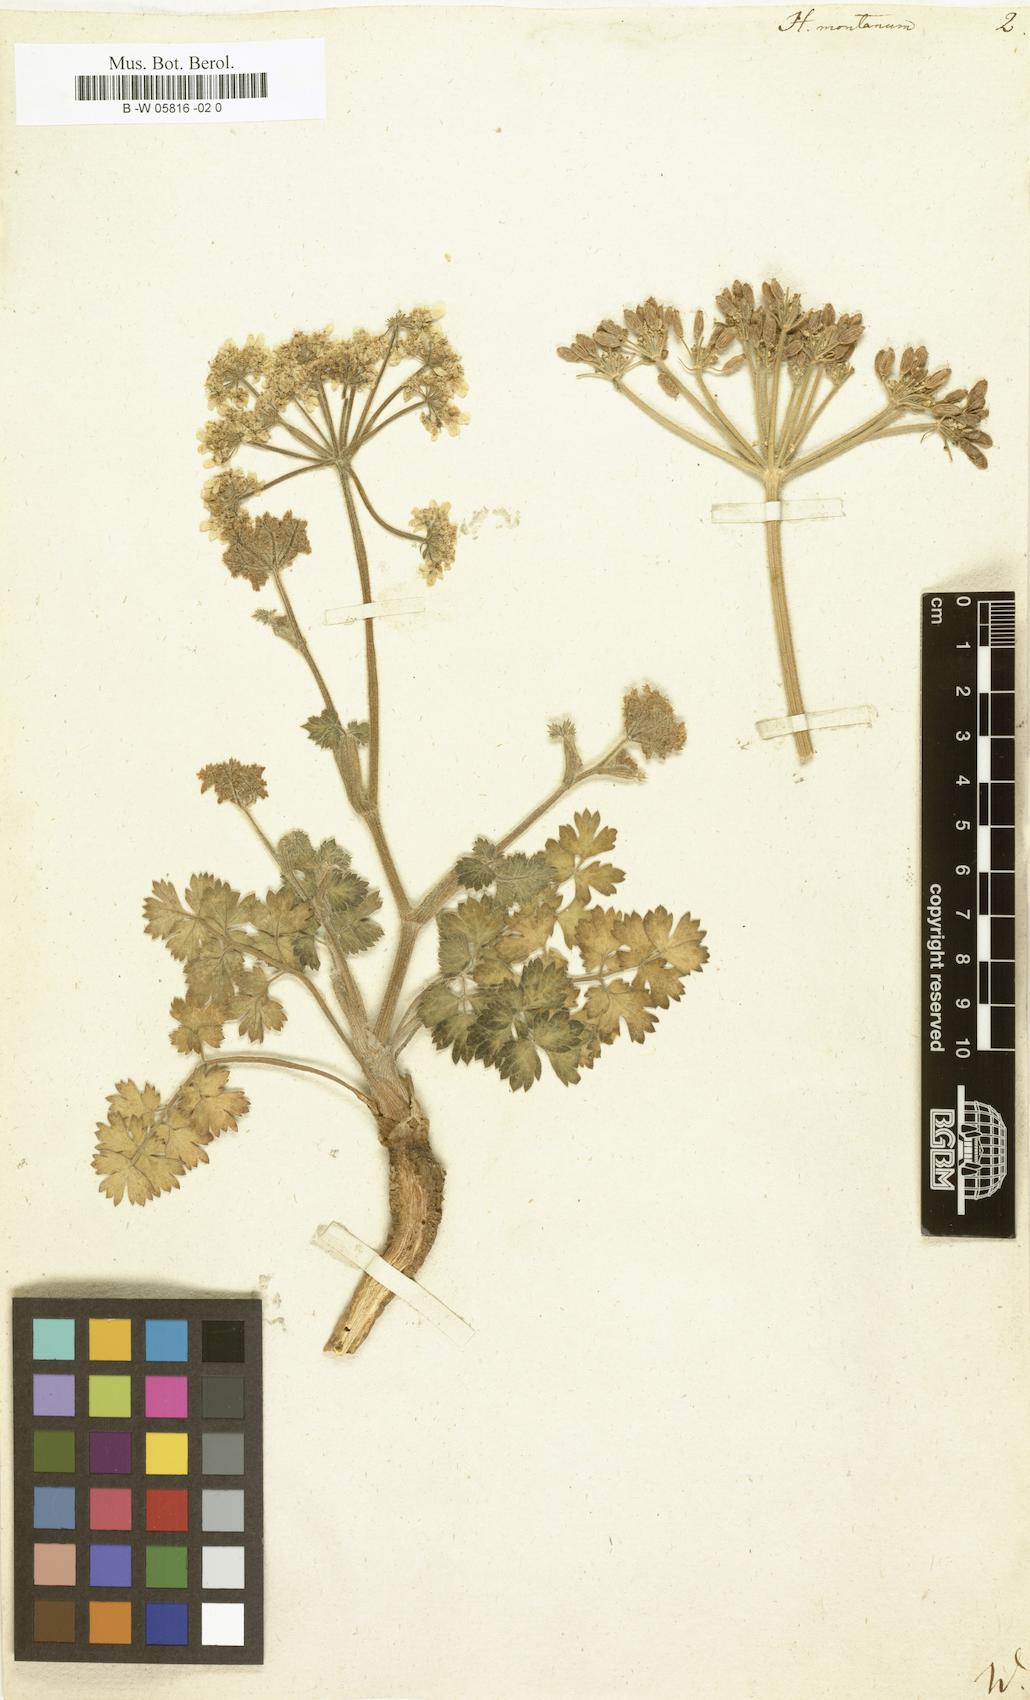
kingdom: Plantae
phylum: Tracheophyta
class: Magnoliopsida
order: Apiales
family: Apiaceae
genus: Heracleum
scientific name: Heracleum montanum
